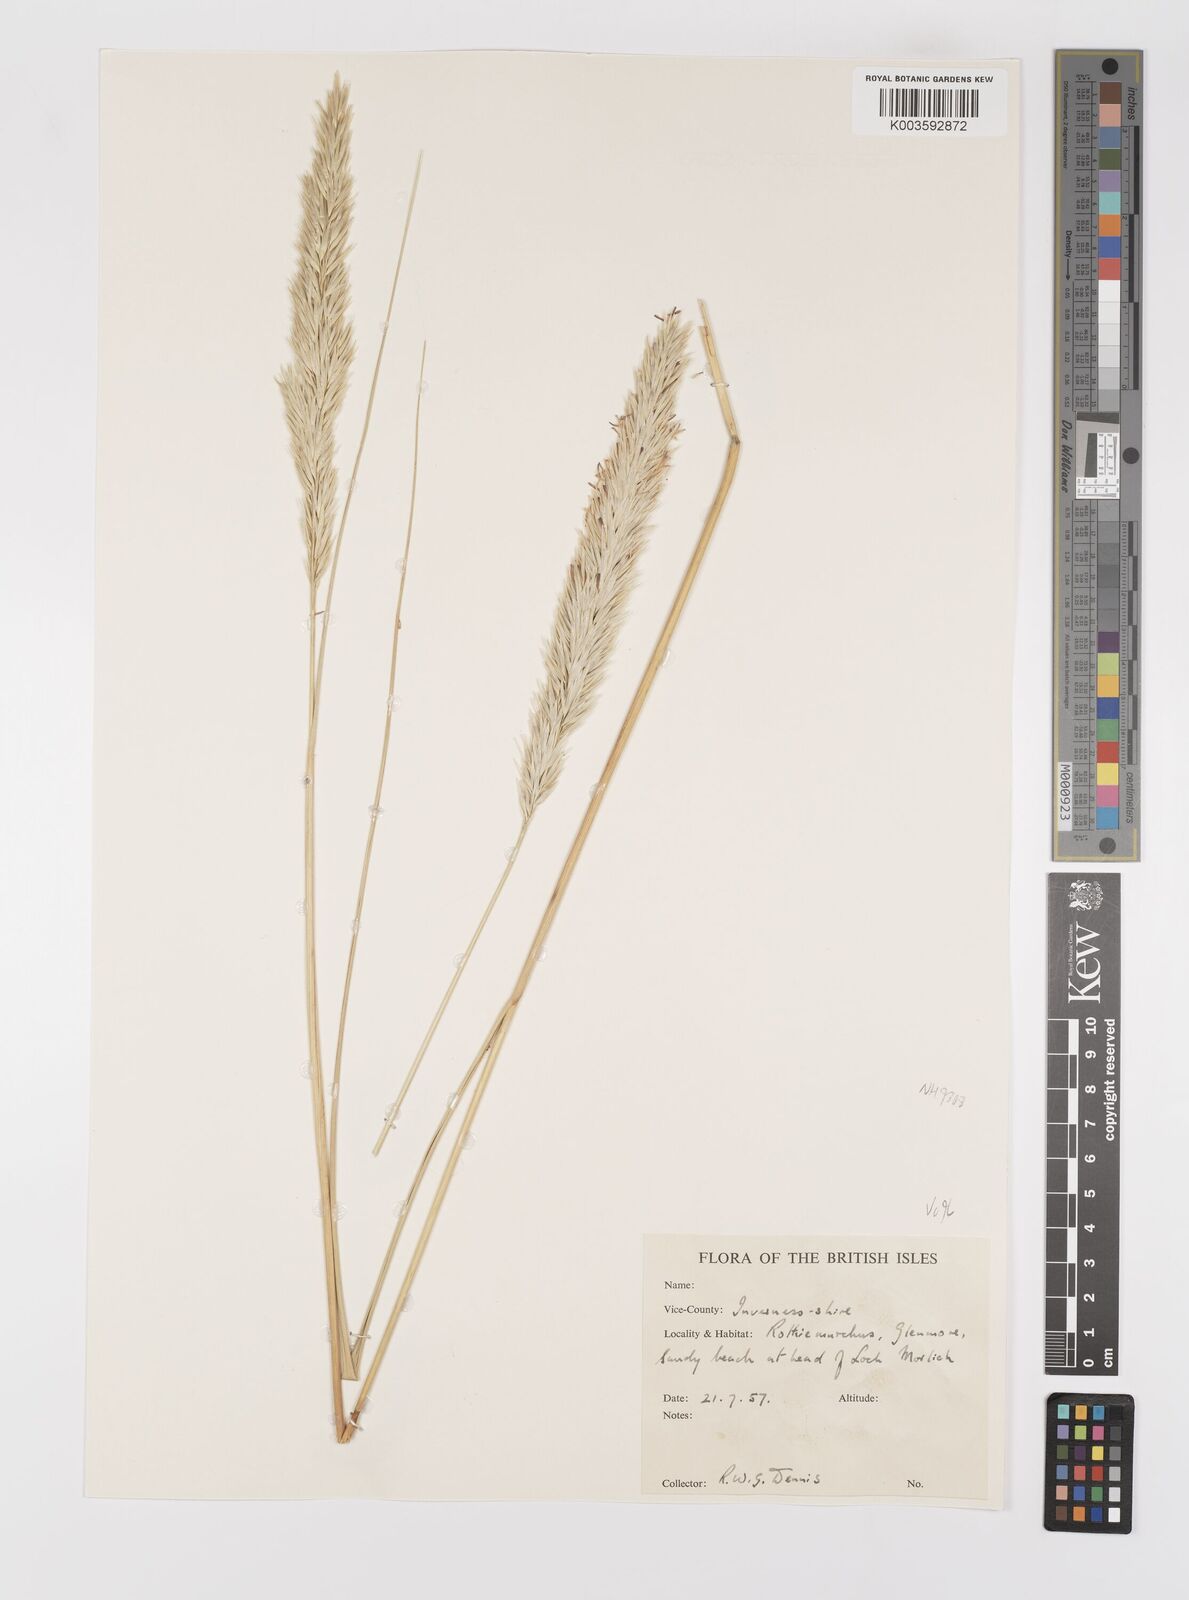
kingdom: Plantae
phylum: Tracheophyta
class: Liliopsida
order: Poales
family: Poaceae
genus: Calamagrostis
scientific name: Calamagrostis arenaria
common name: European beachgrass
